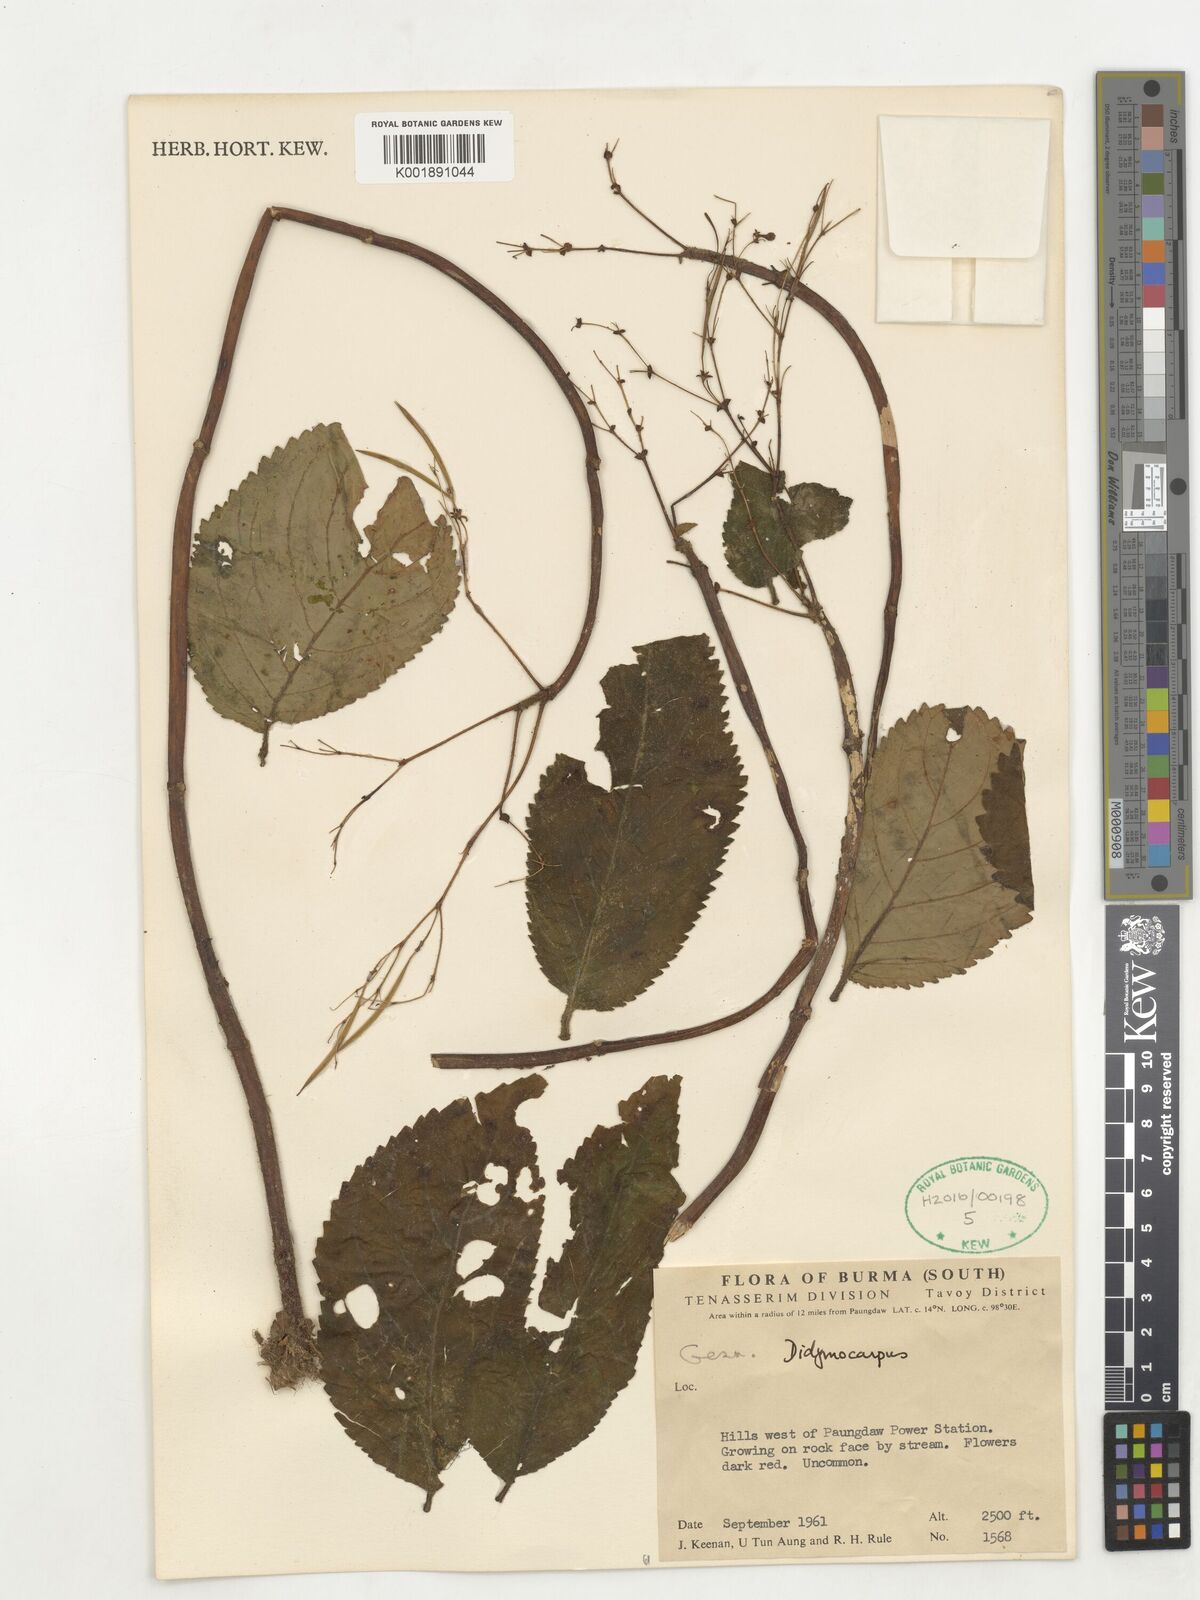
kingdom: Plantae
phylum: Tracheophyta
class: Magnoliopsida
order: Lamiales
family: Gesneriaceae
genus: Didymocarpus
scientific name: Didymocarpus
